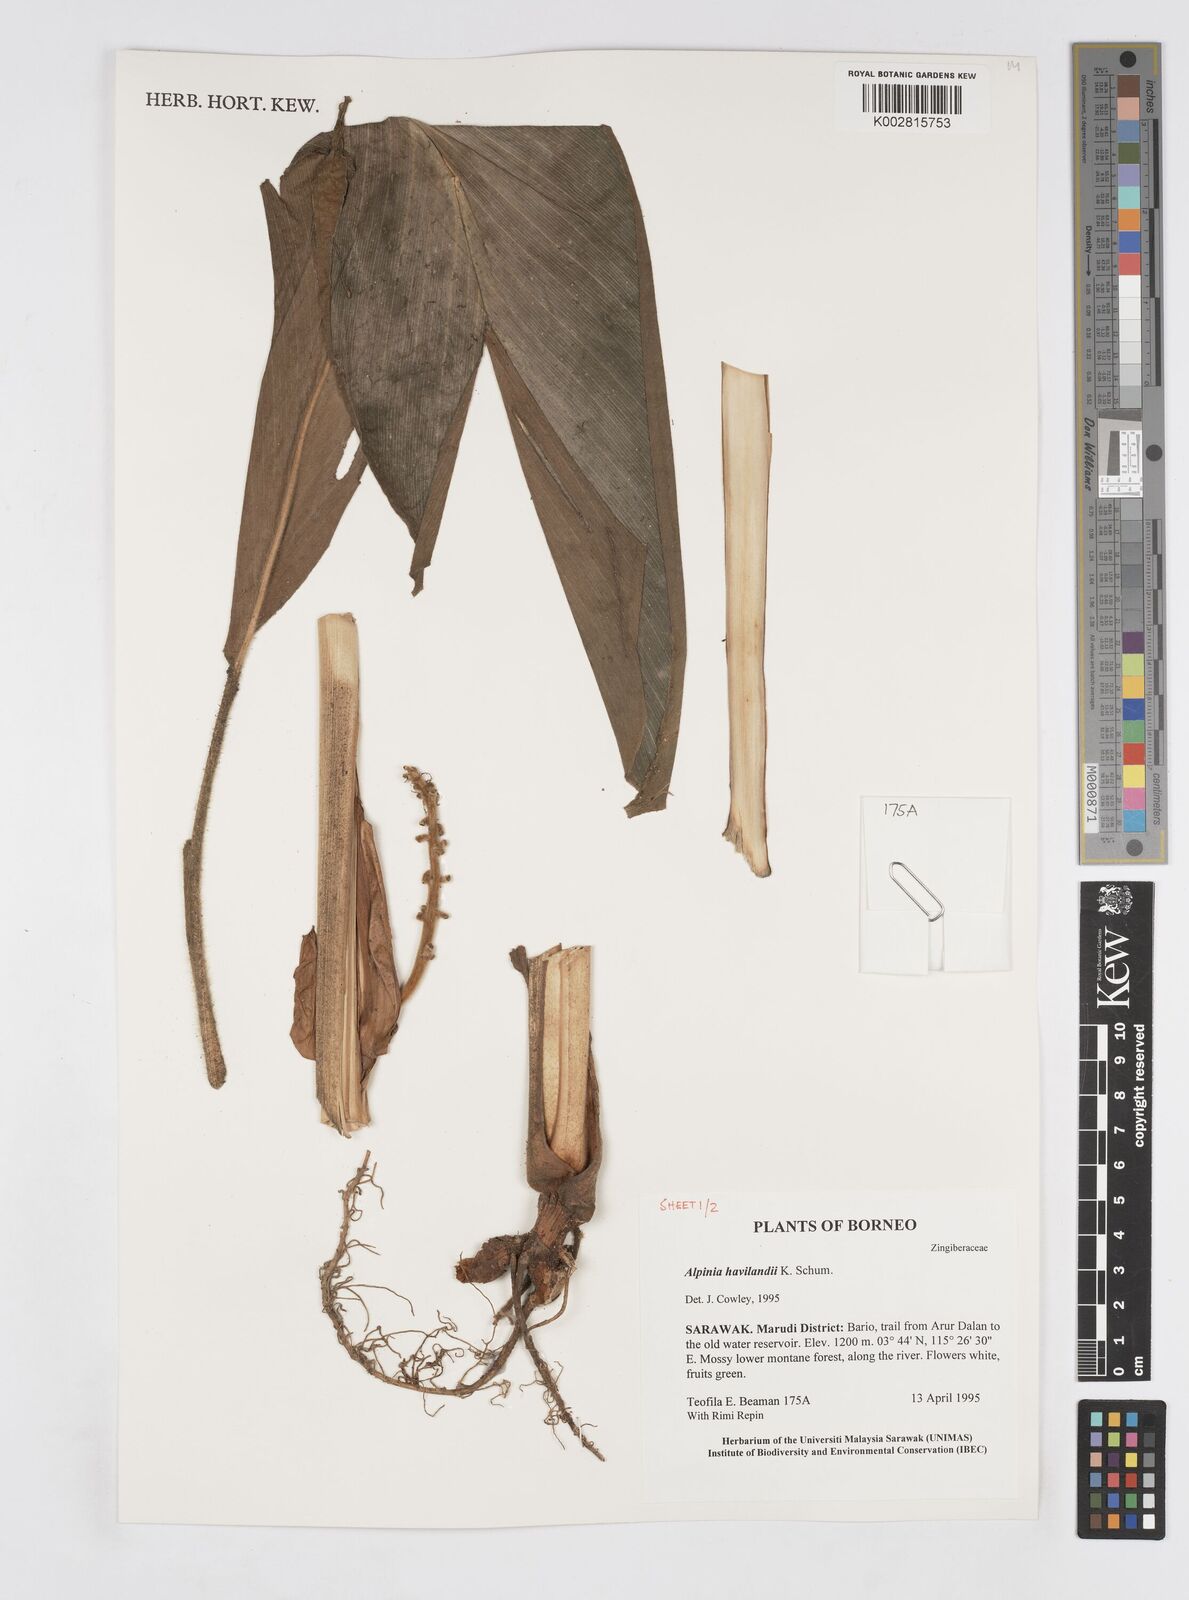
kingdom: Plantae
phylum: Tracheophyta
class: Liliopsida
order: Zingiberales
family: Zingiberaceae
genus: Alpinia
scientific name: Alpinia havilandii
